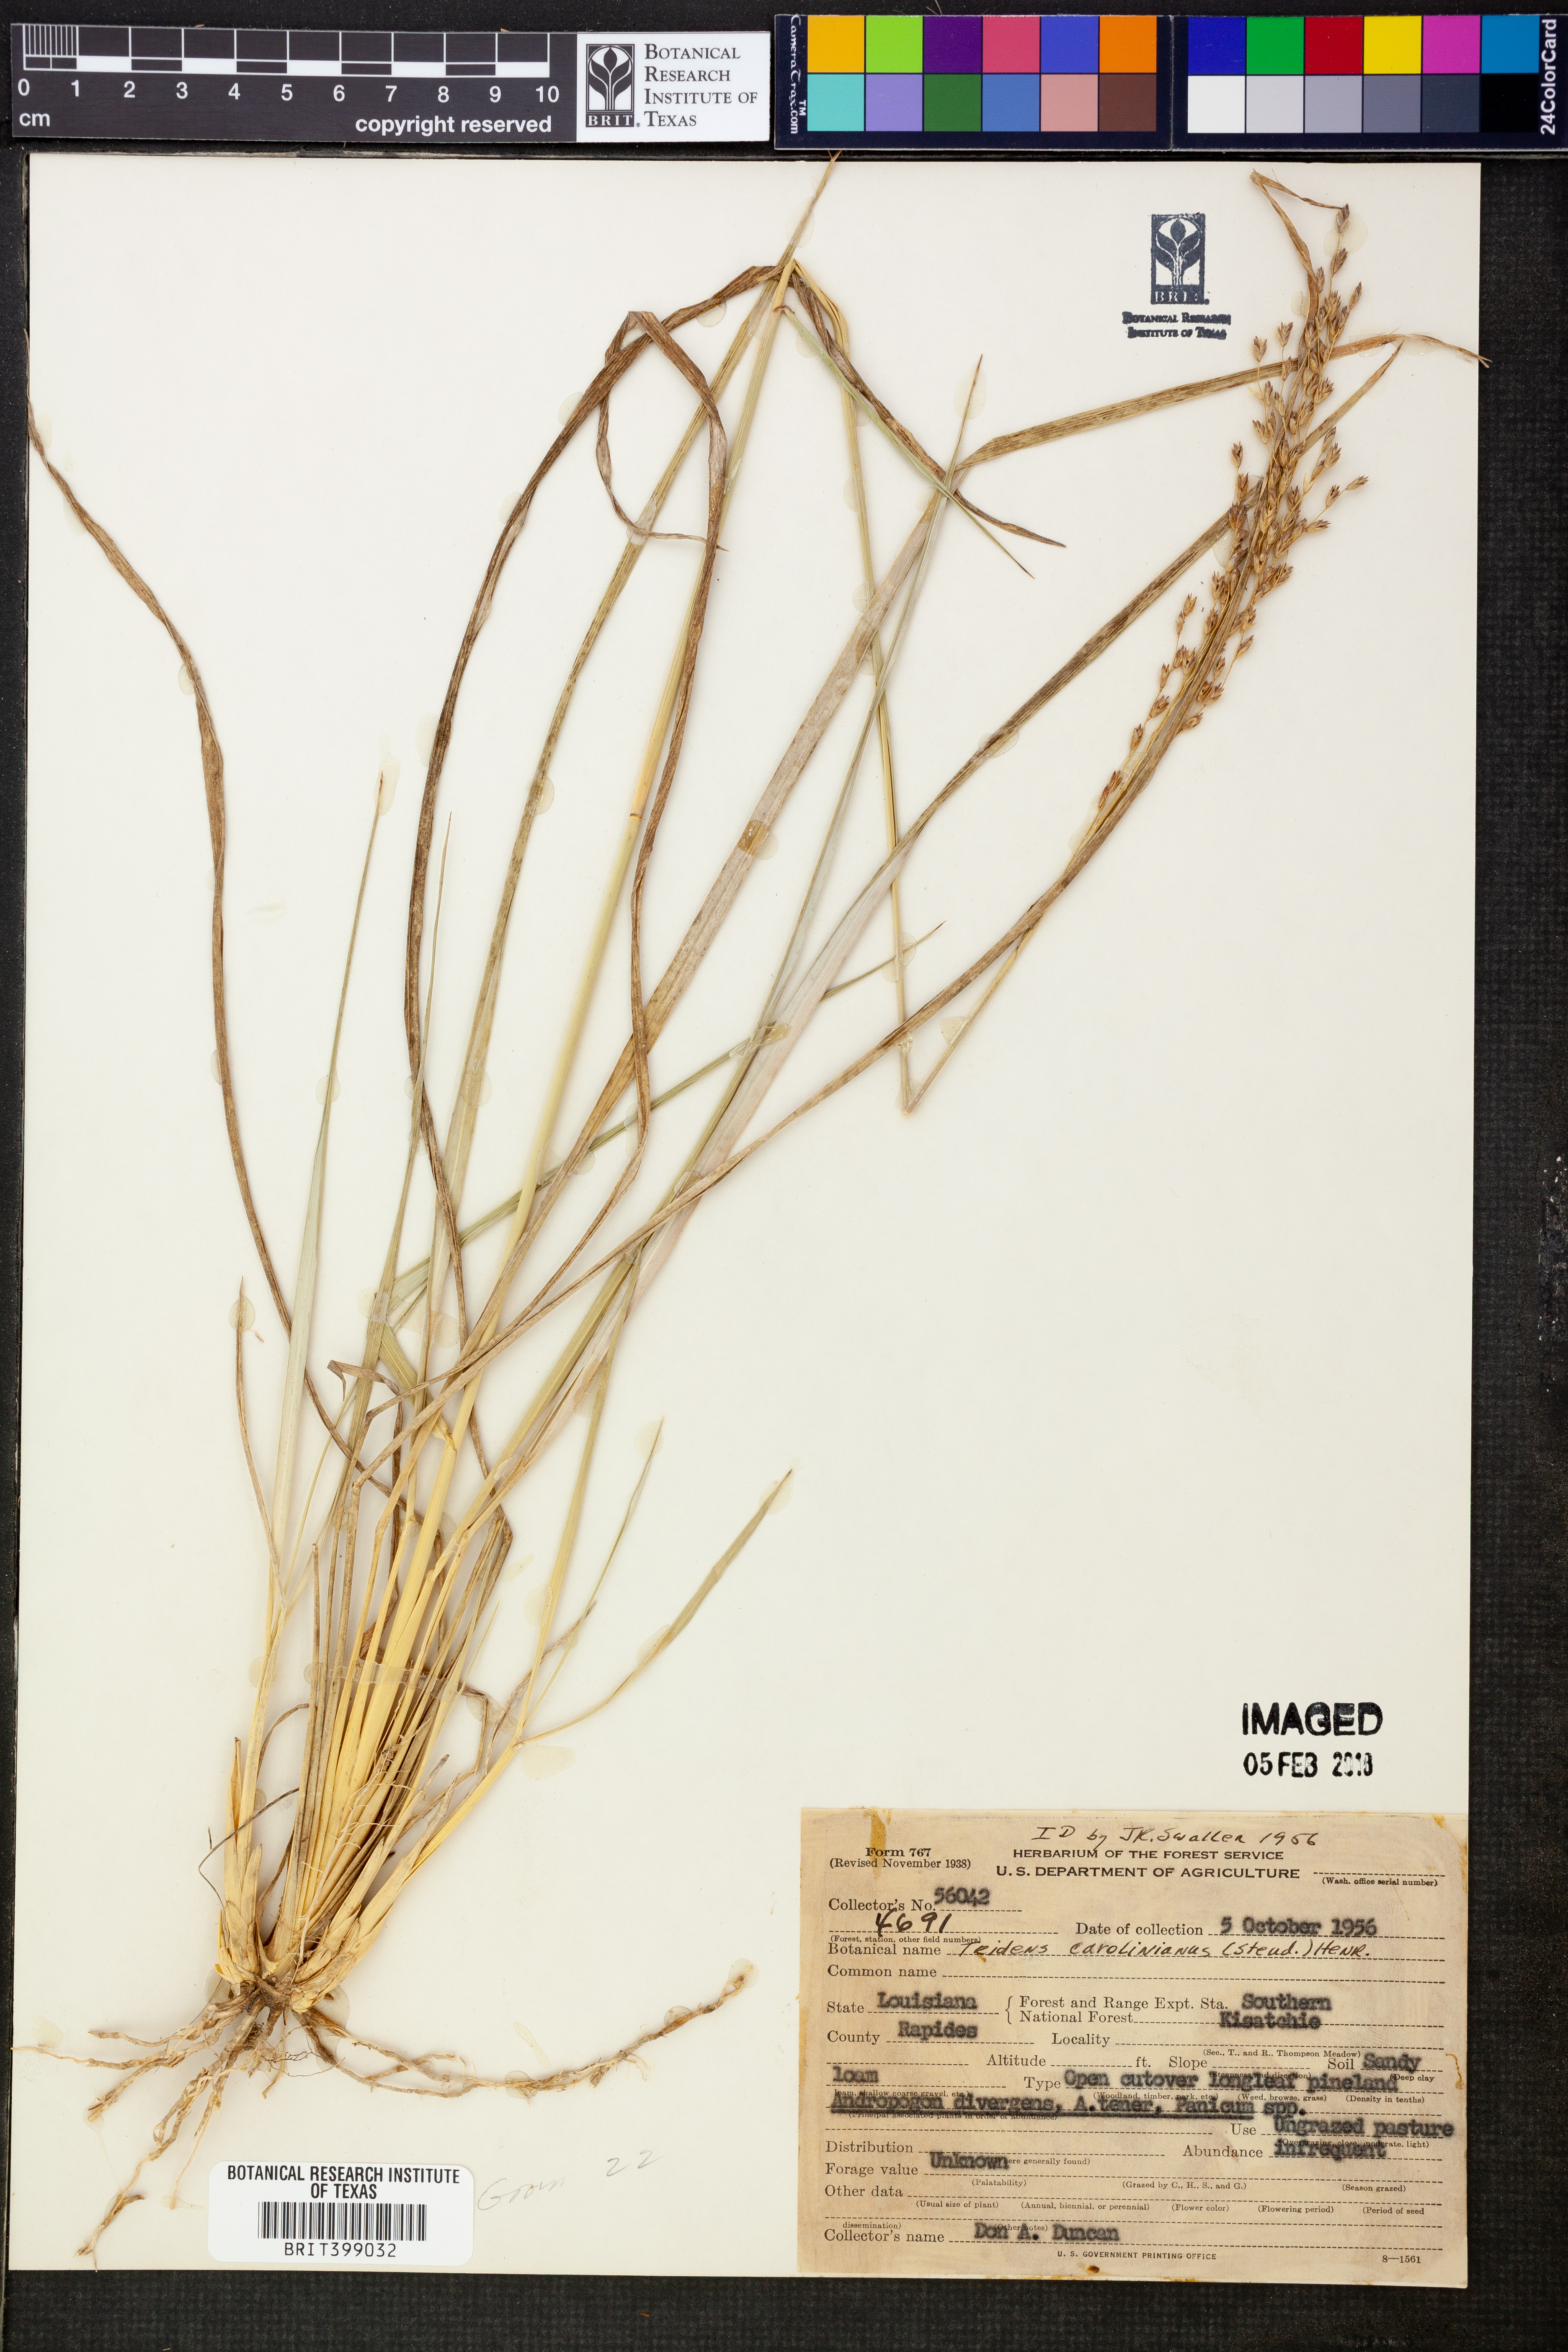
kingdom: Plantae
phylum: Tracheophyta
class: Liliopsida
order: Poales
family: Poaceae
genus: Tridens
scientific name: Tridens carolinianus
